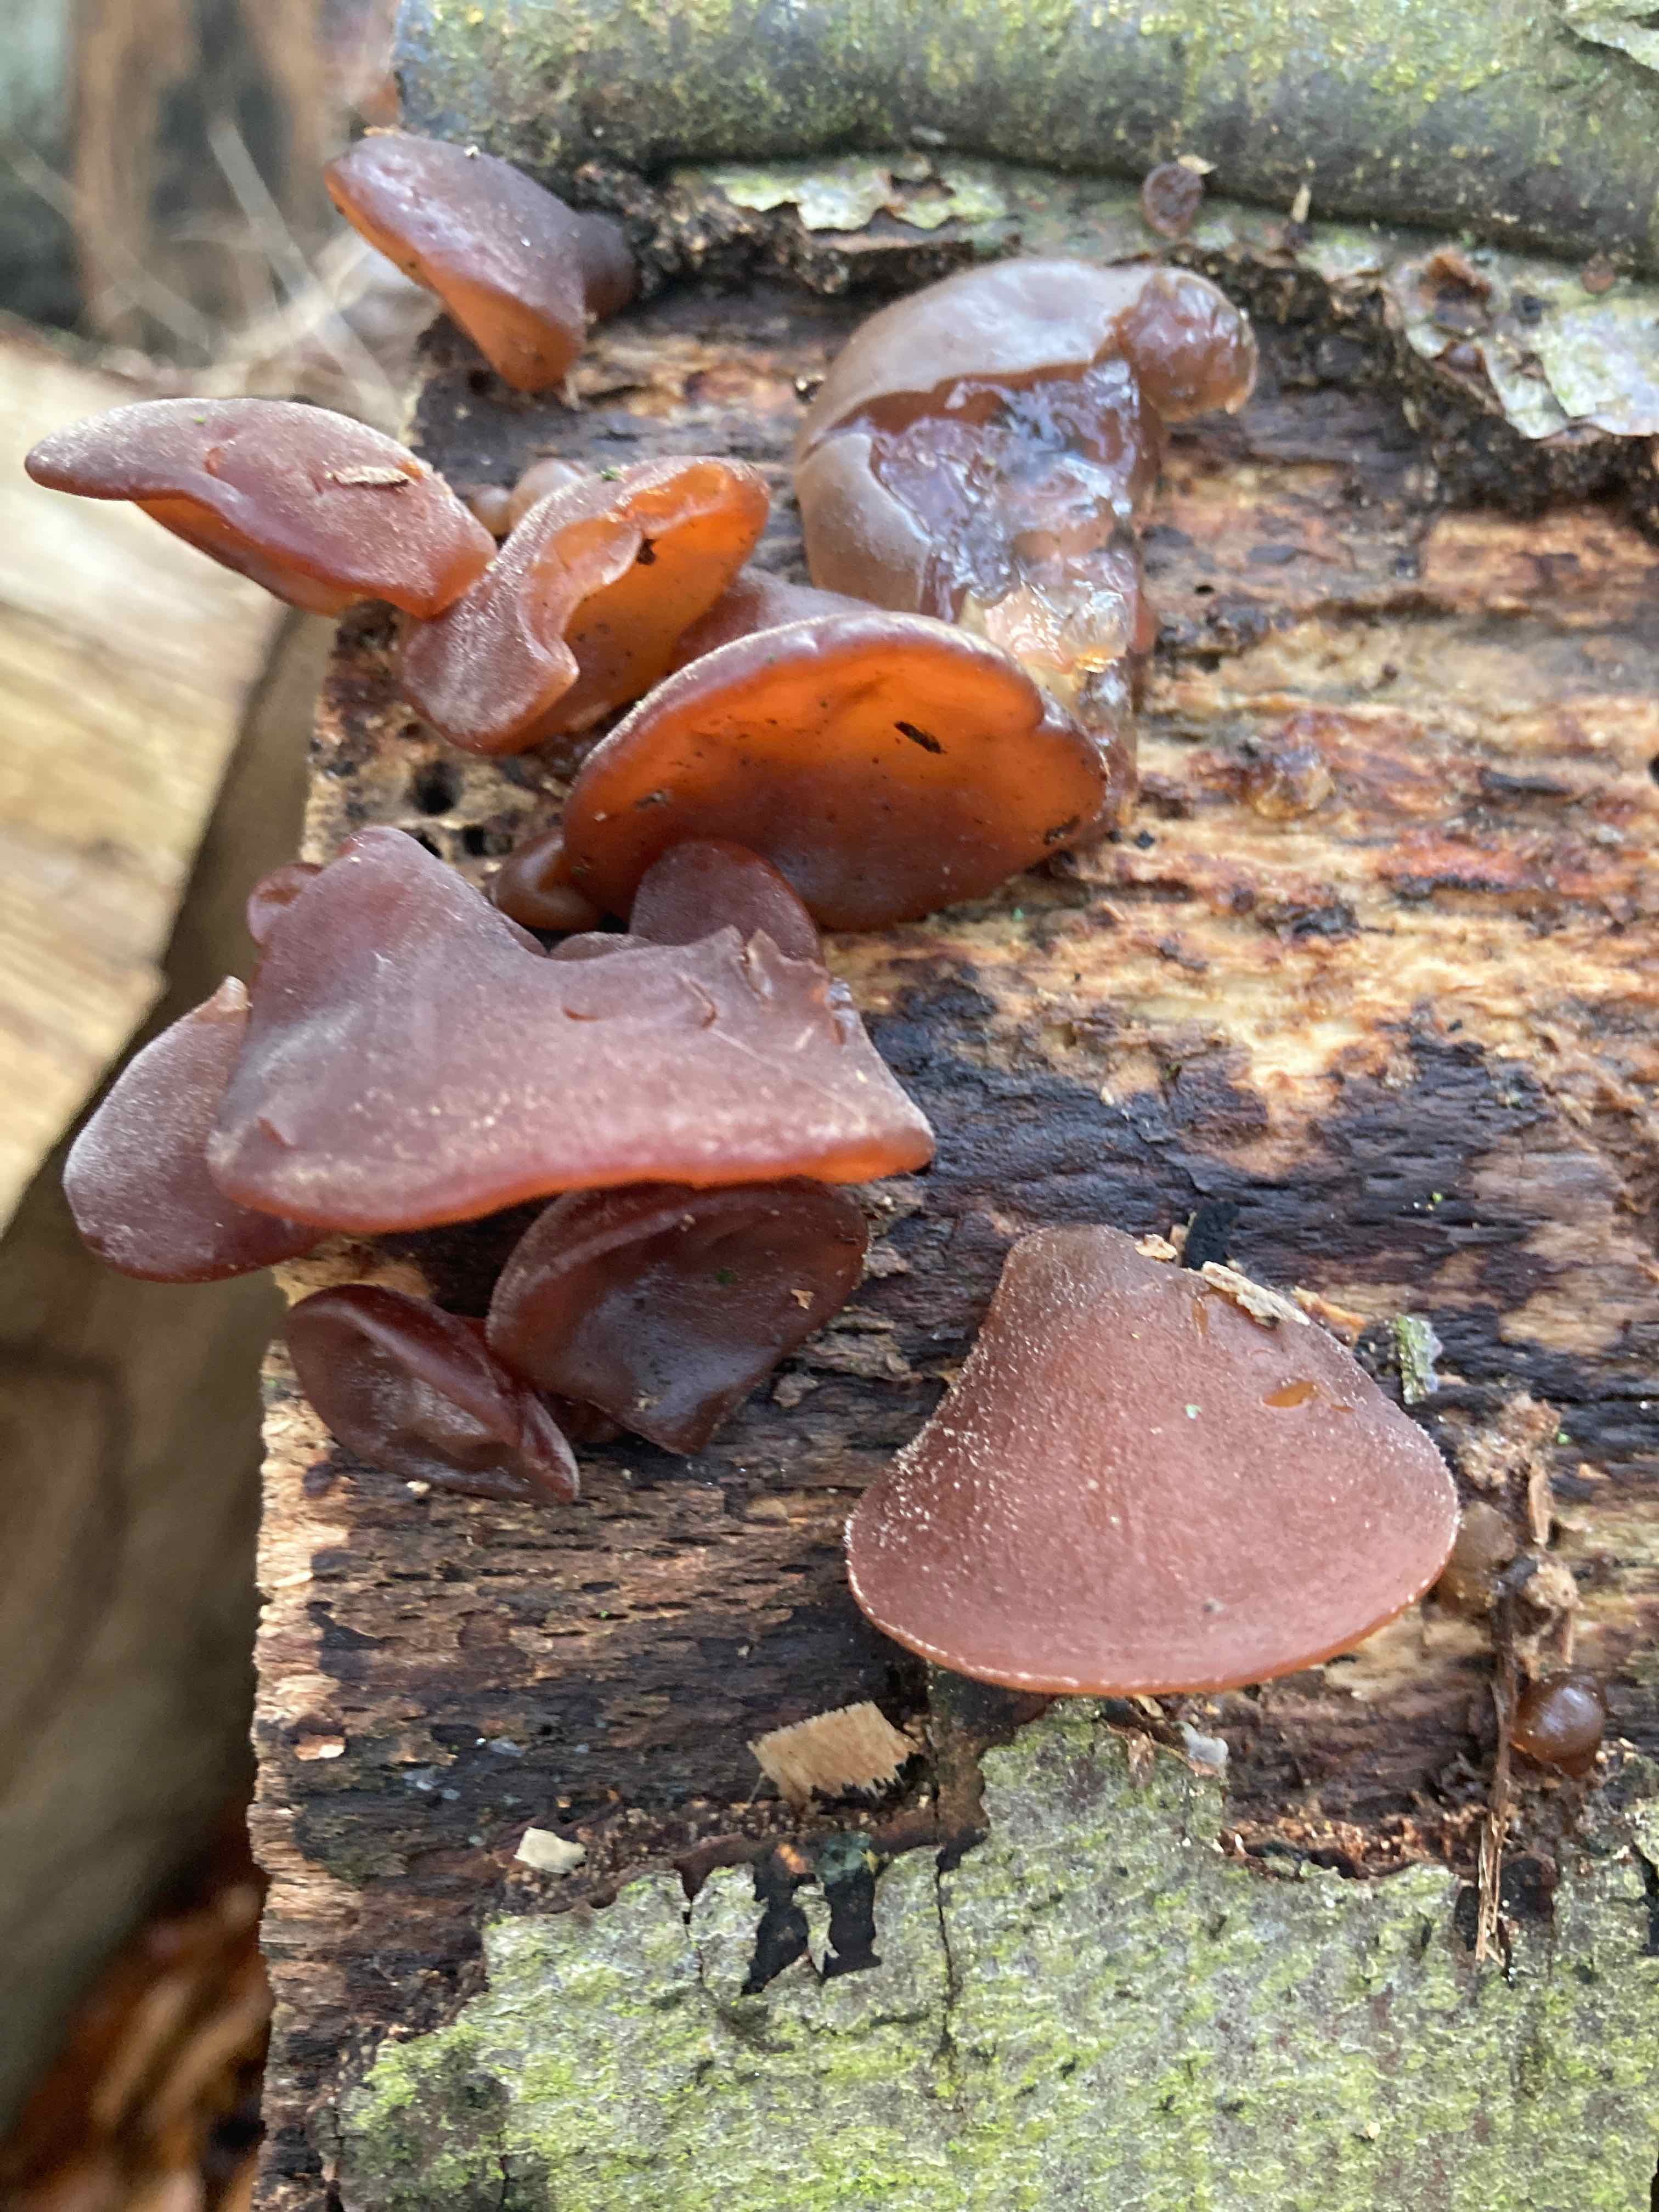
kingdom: Fungi
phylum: Basidiomycota
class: Agaricomycetes
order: Auriculariales
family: Auriculariaceae
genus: Auricularia
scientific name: Auricularia auricula-judae
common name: almindelig judasøre
